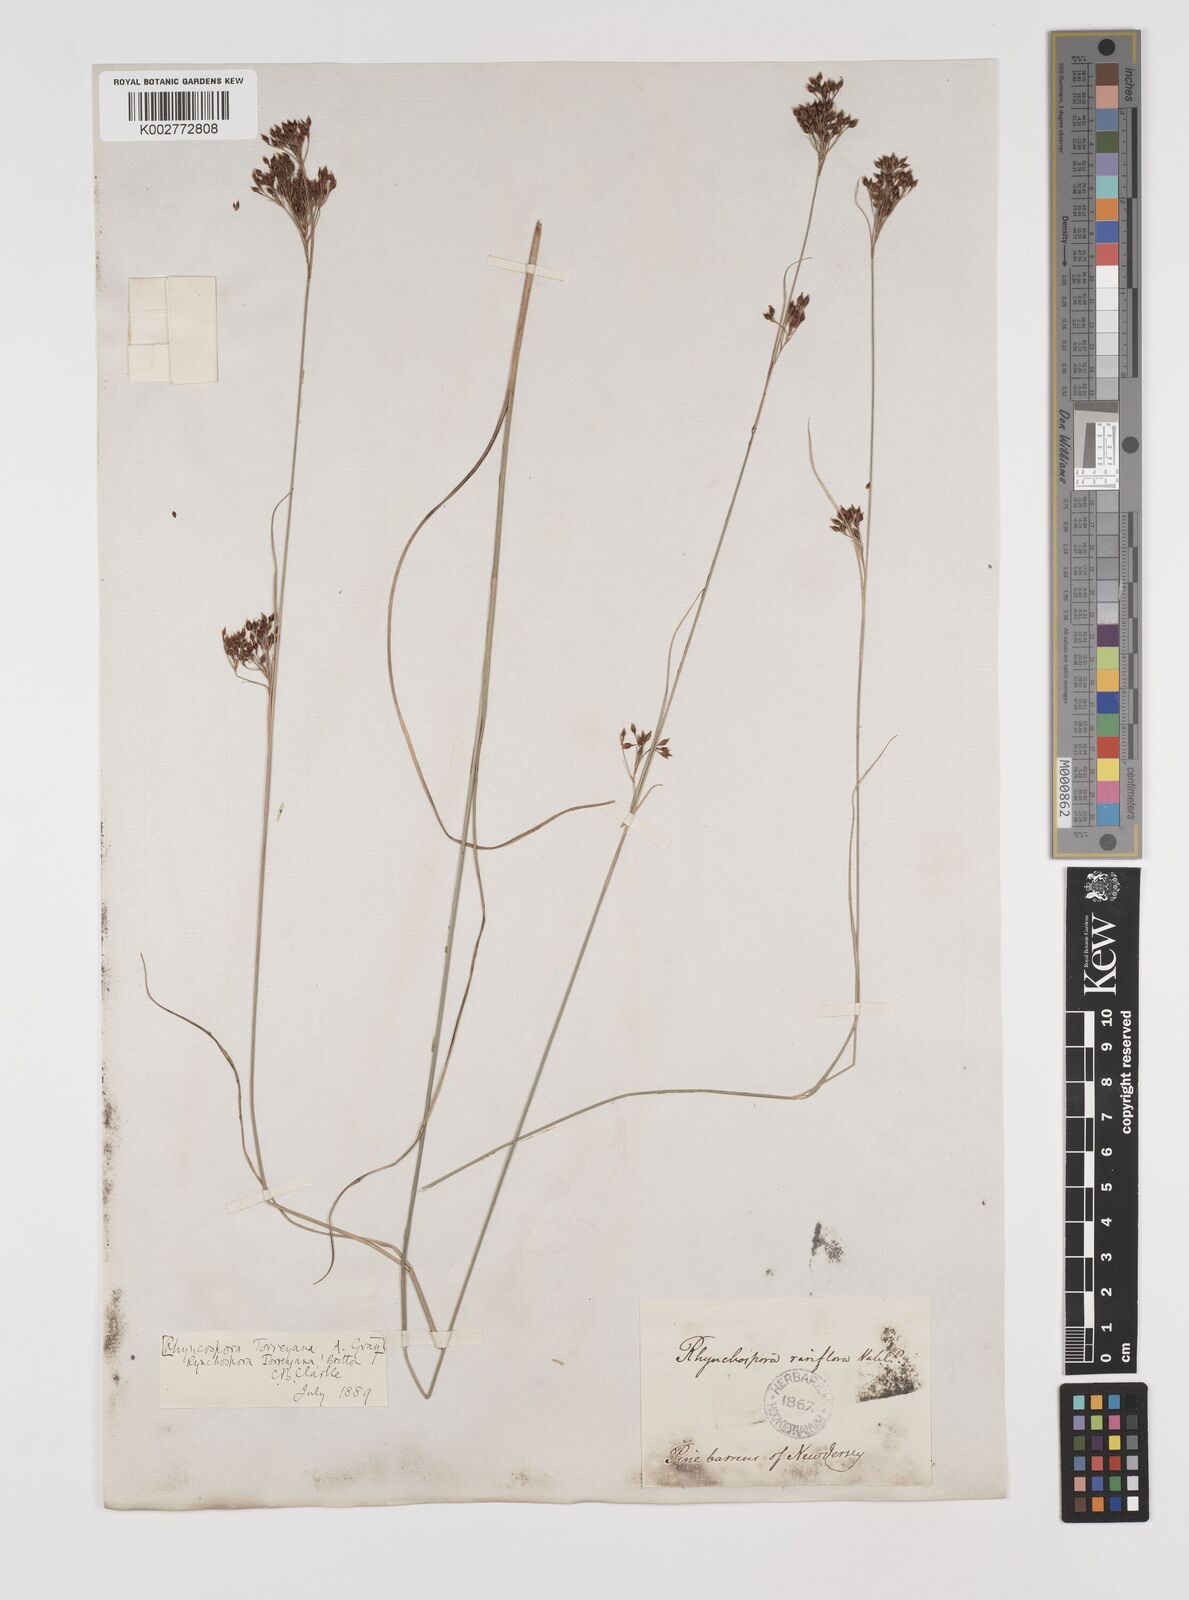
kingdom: Plantae
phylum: Tracheophyta
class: Liliopsida
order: Poales
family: Cyperaceae
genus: Rhynchospora
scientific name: Rhynchospora torreyana
